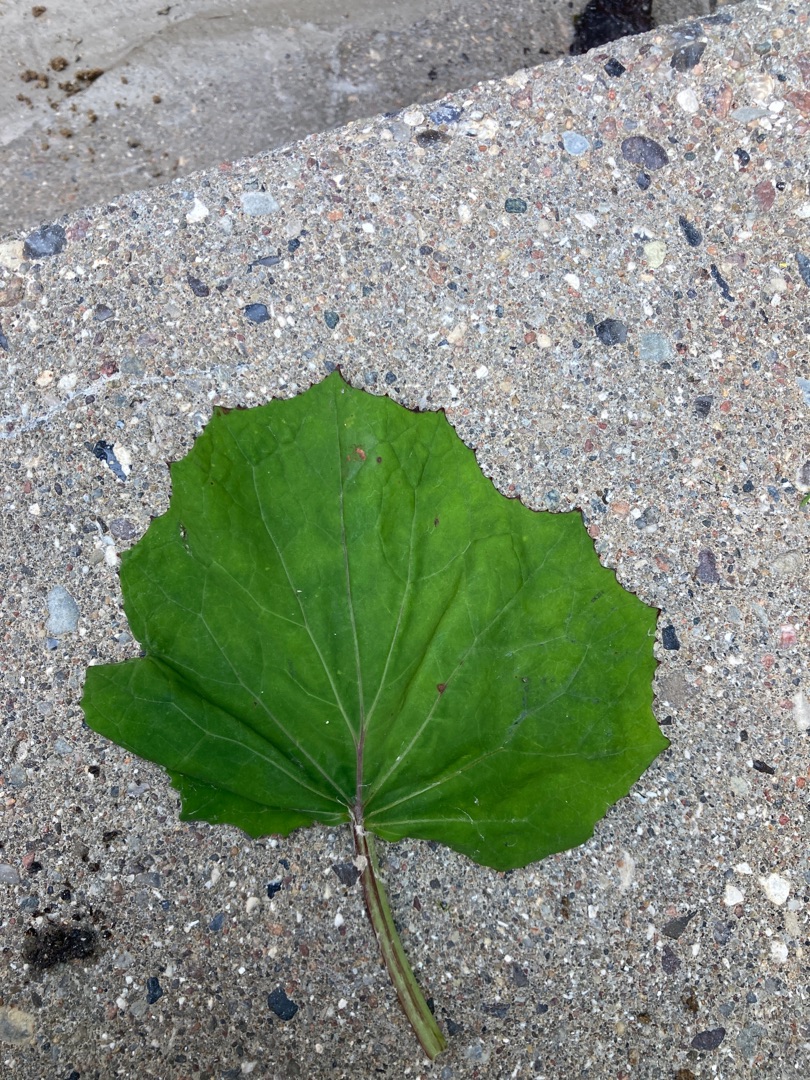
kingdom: Plantae
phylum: Tracheophyta
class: Magnoliopsida
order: Asterales
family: Asteraceae
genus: Tussilago
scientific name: Tussilago farfara
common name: Følfod
